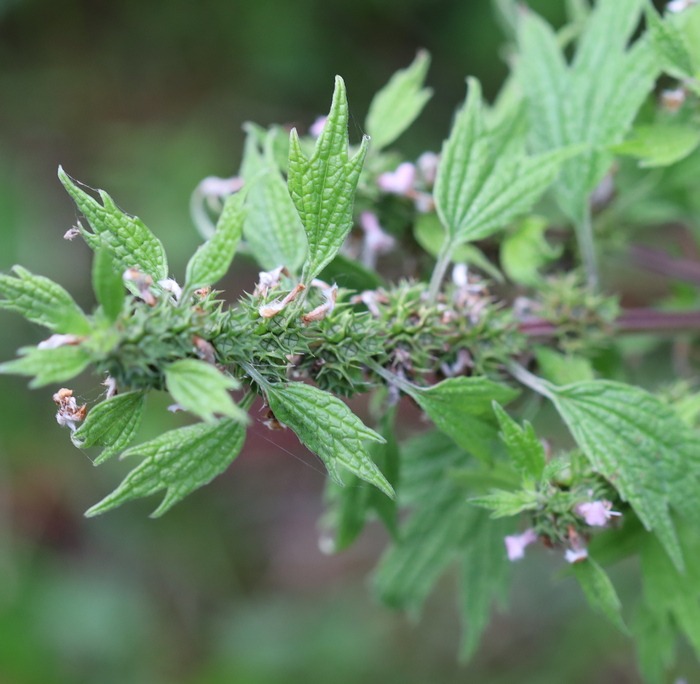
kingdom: Plantae
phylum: Tracheophyta
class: Magnoliopsida
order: Lamiales
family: Lamiaceae
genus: Leonurus
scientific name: Leonurus cardiaca
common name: Hjertespand
